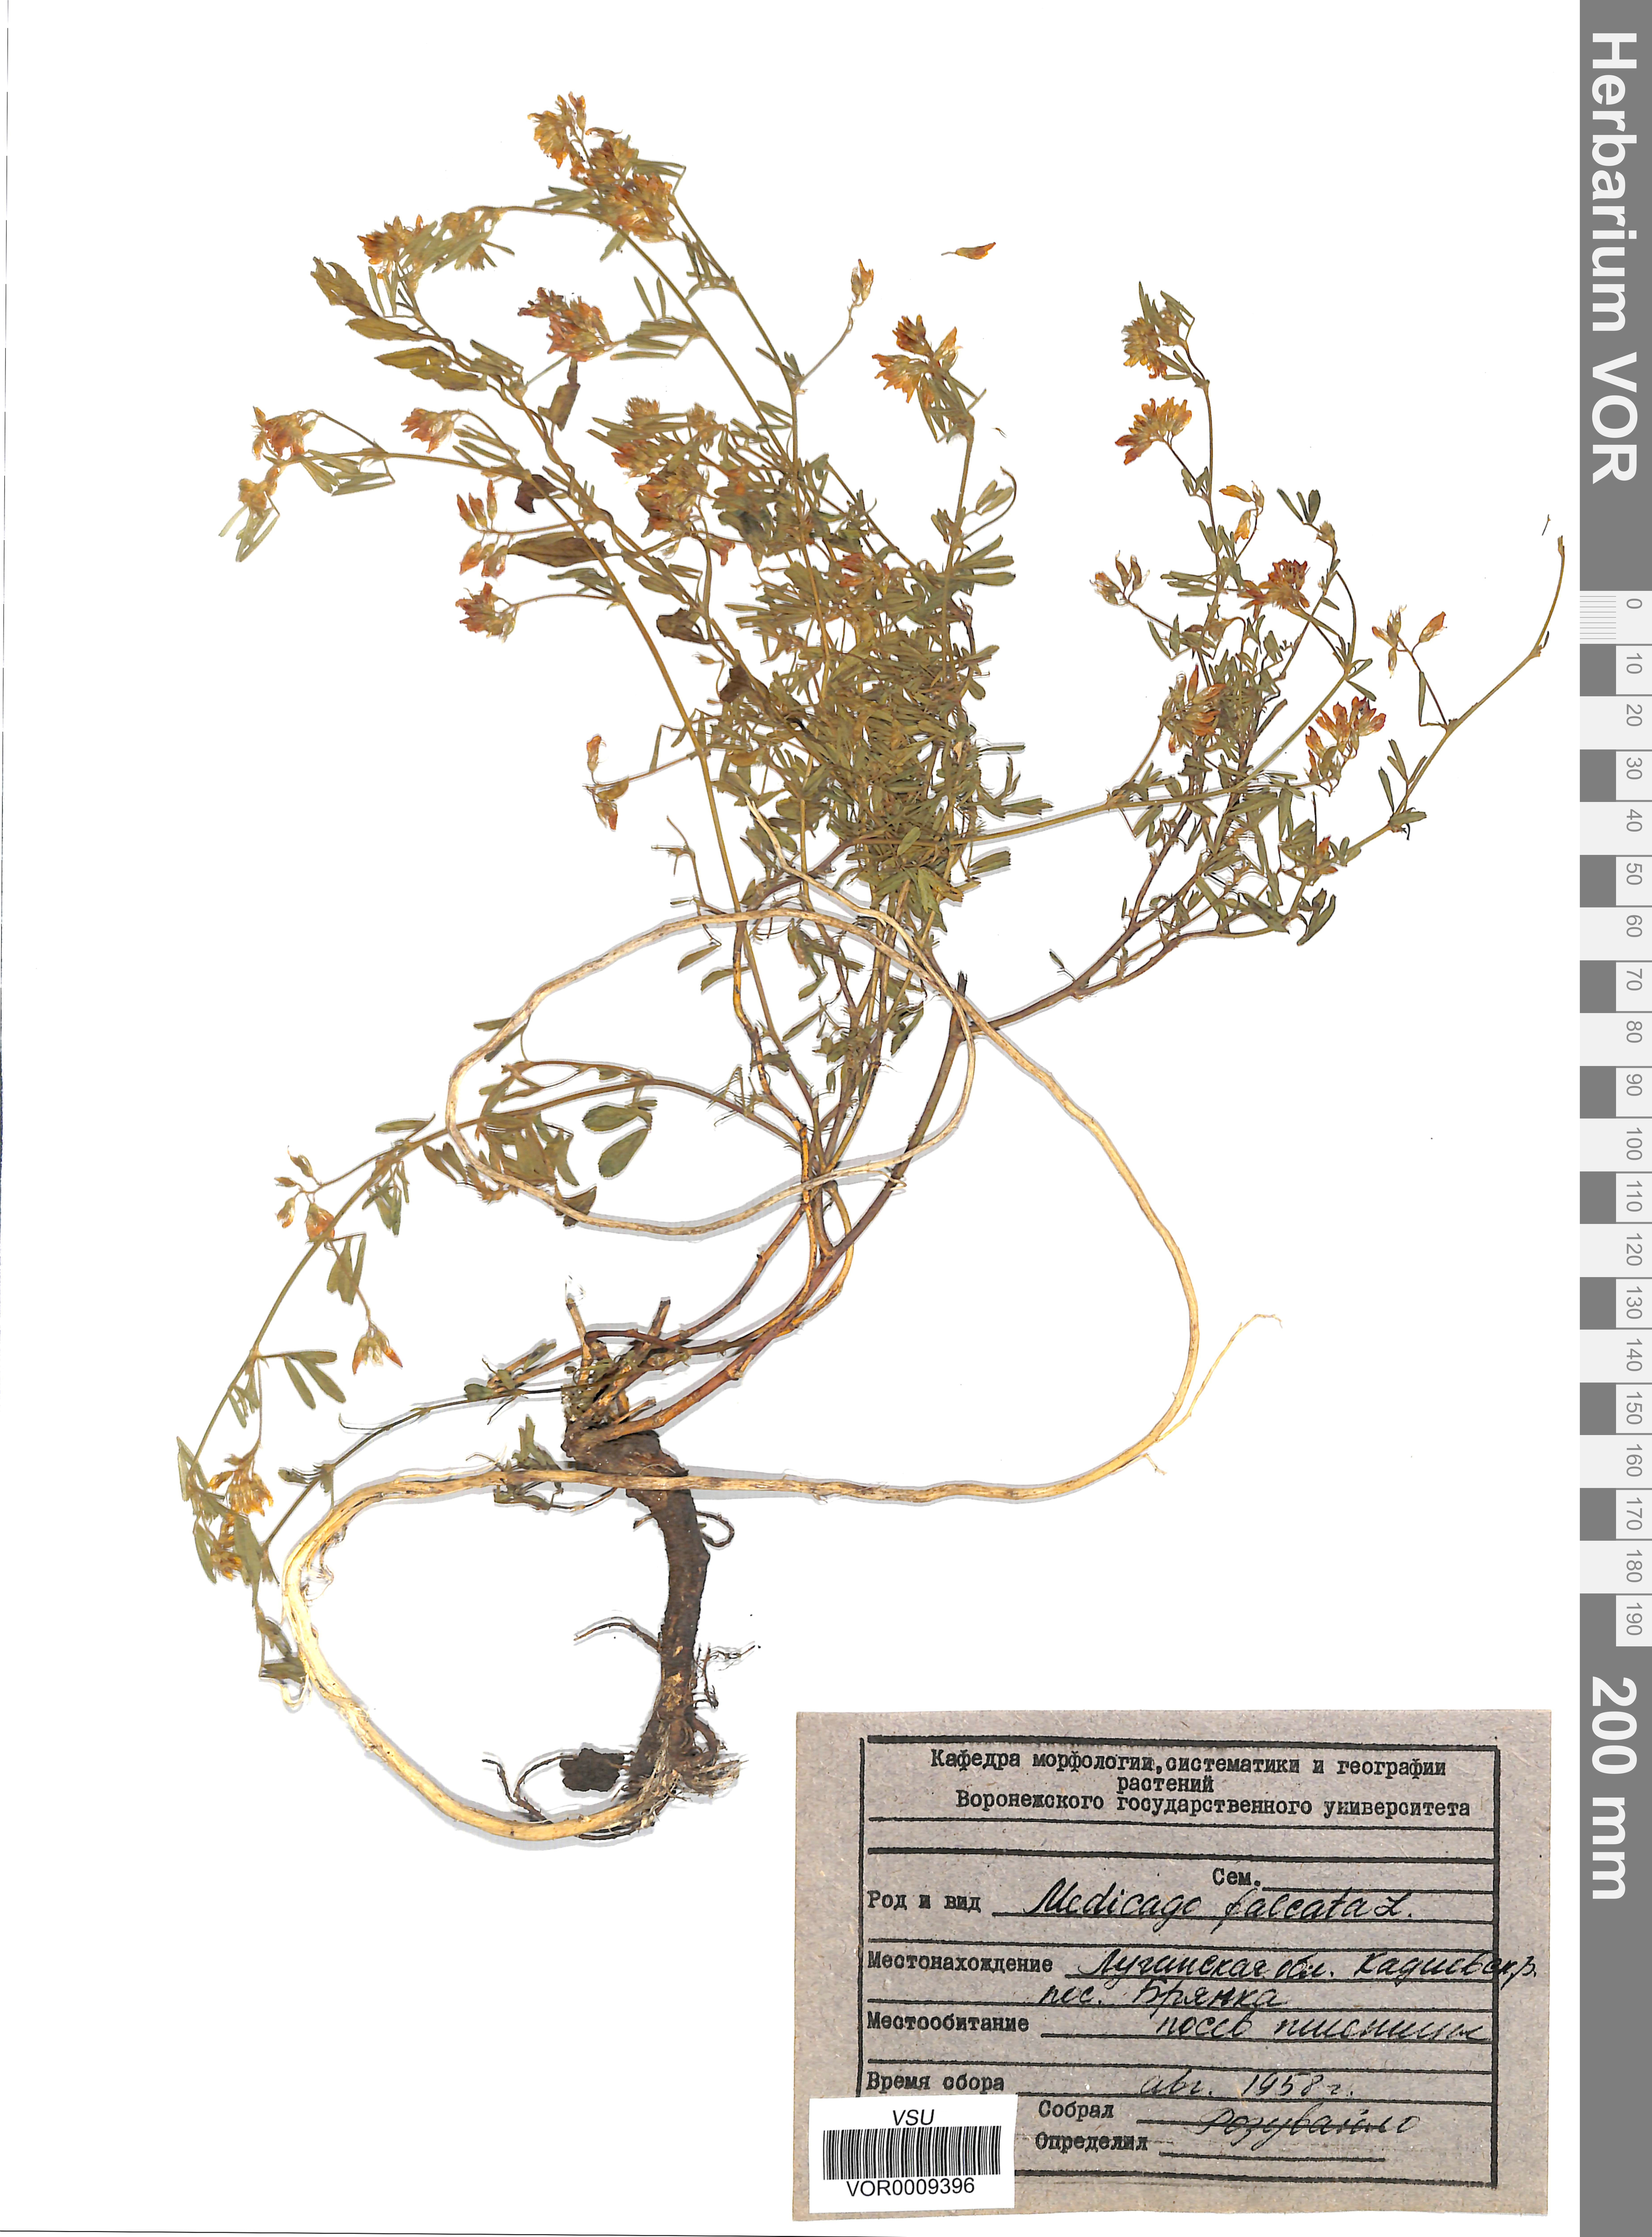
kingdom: Plantae
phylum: Tracheophyta
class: Magnoliopsida
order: Fabales
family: Fabaceae
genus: Medicago
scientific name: Medicago falcata
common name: Sickle medick
